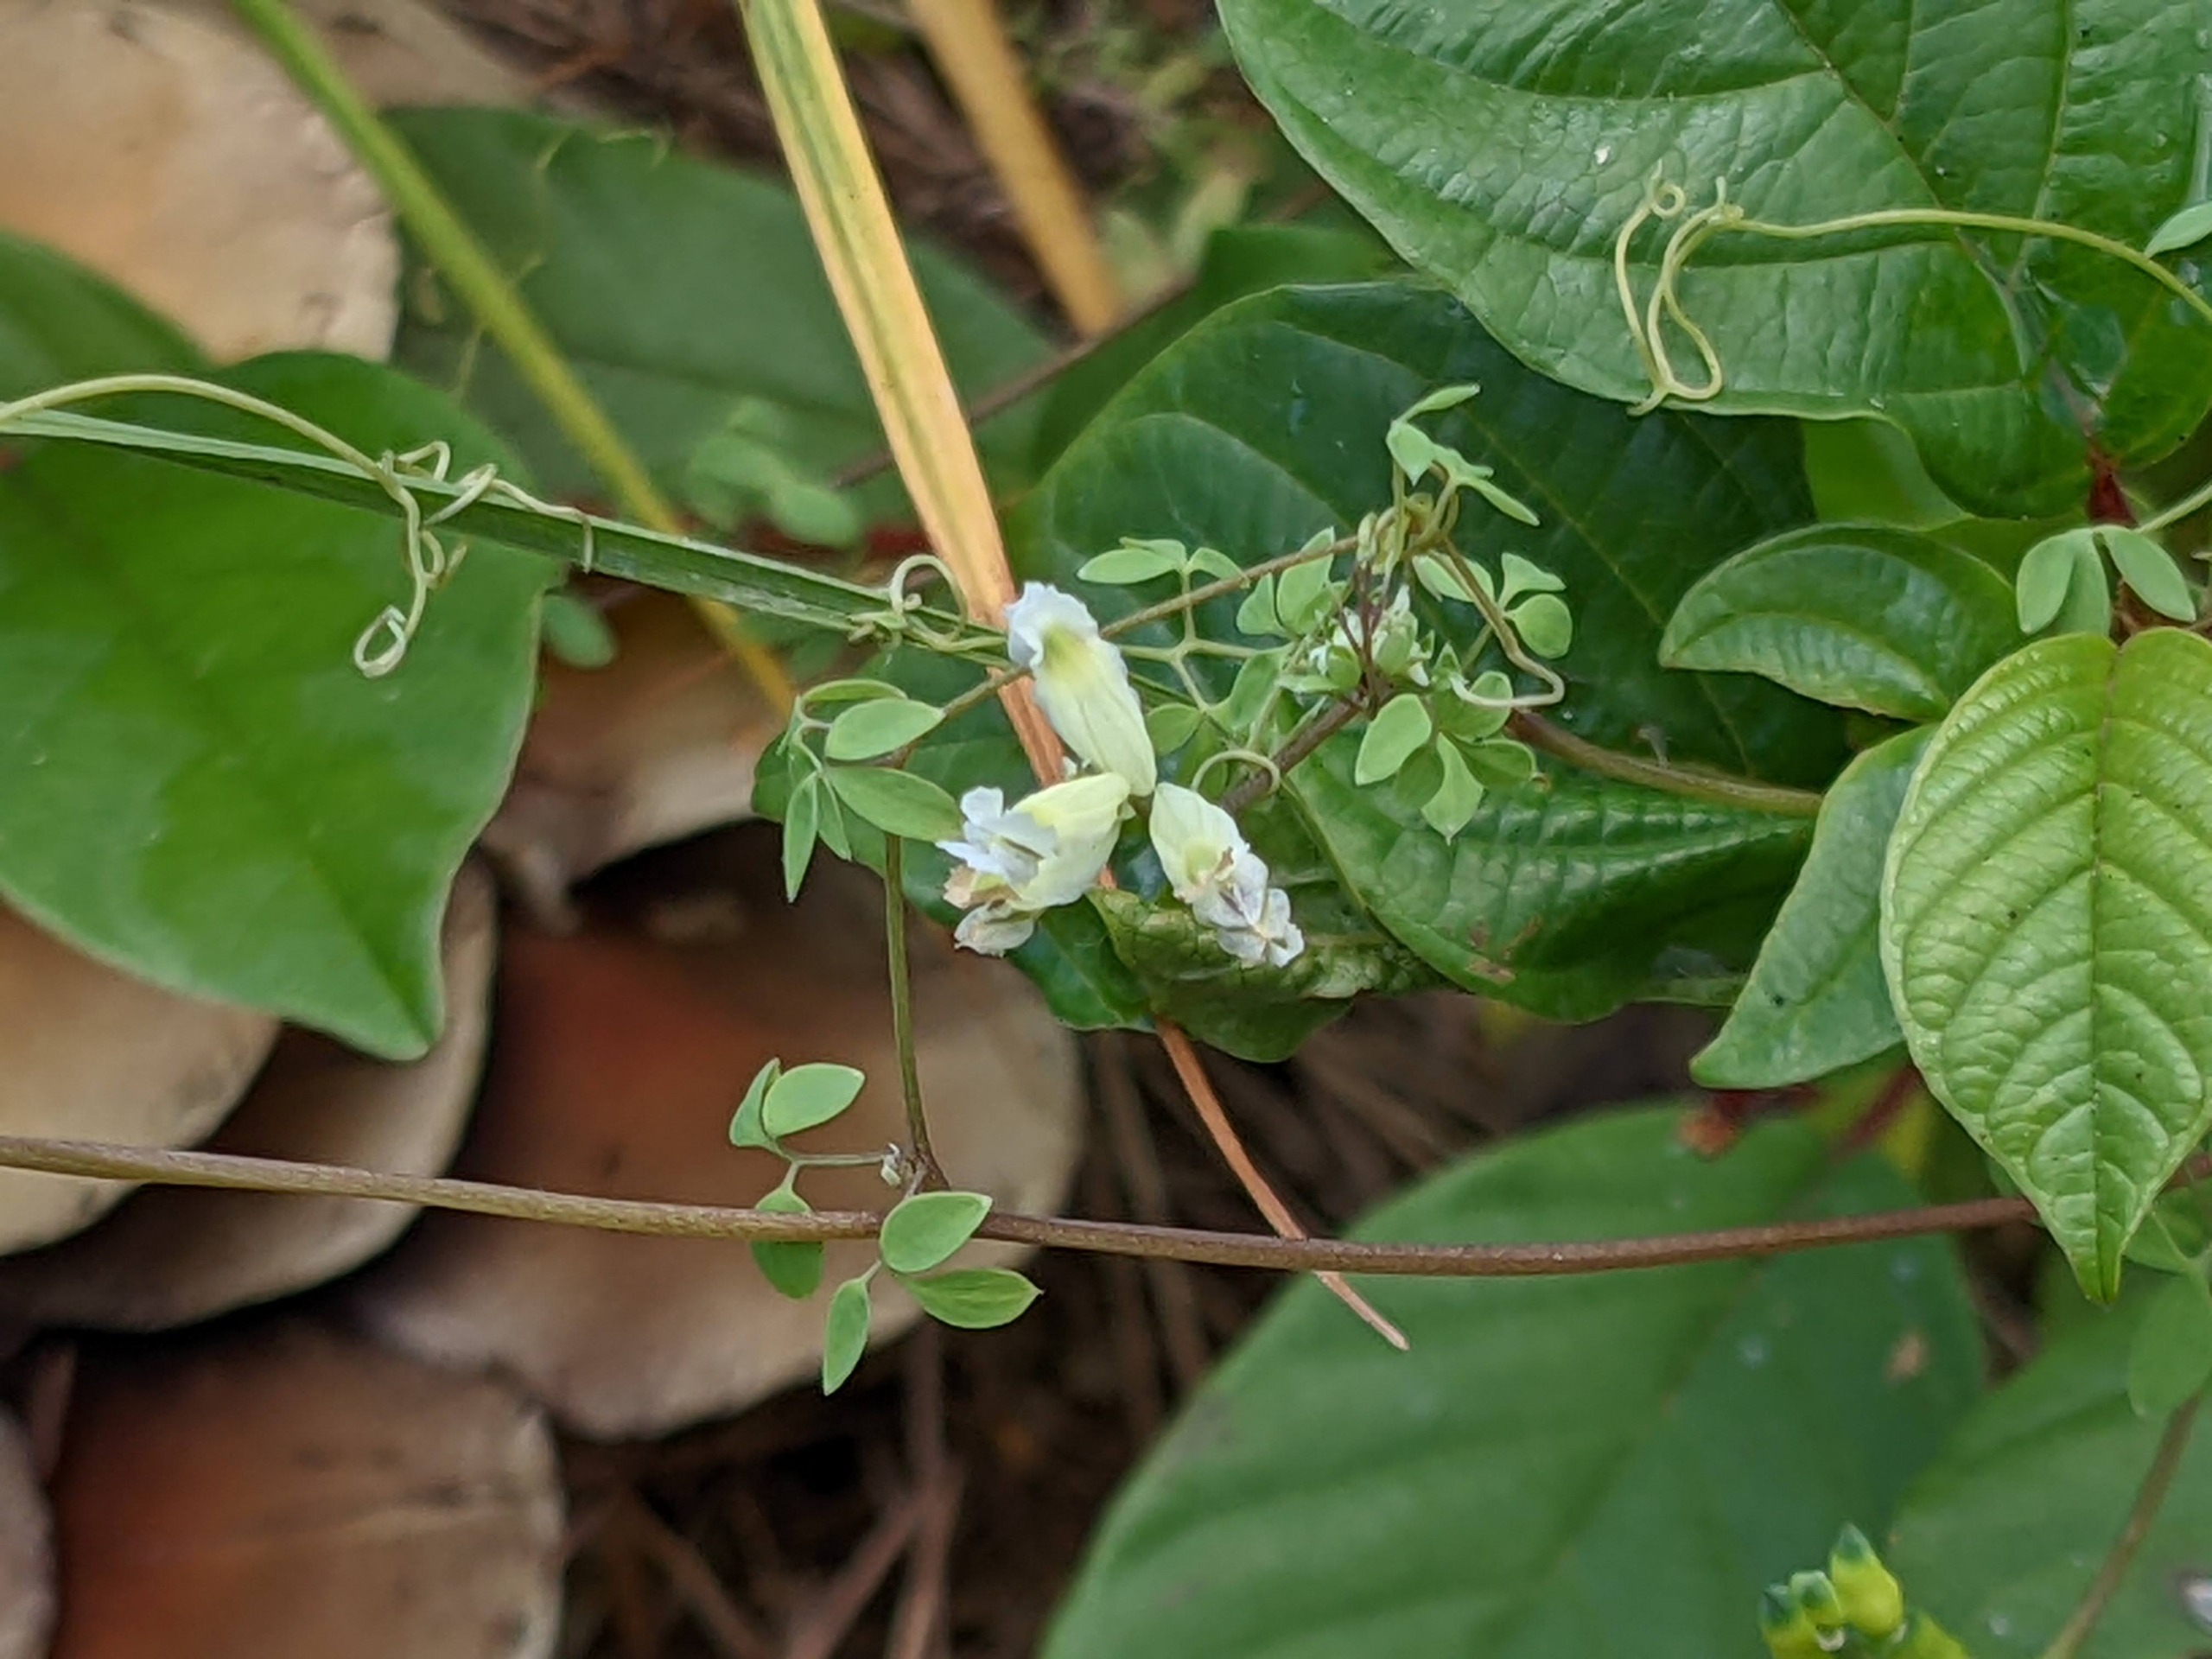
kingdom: Plantae
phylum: Tracheophyta
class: Magnoliopsida
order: Ranunculales
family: Papaveraceae
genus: Ceratocapnos
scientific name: Ceratocapnos claviculata
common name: Klatrende lærkespore
